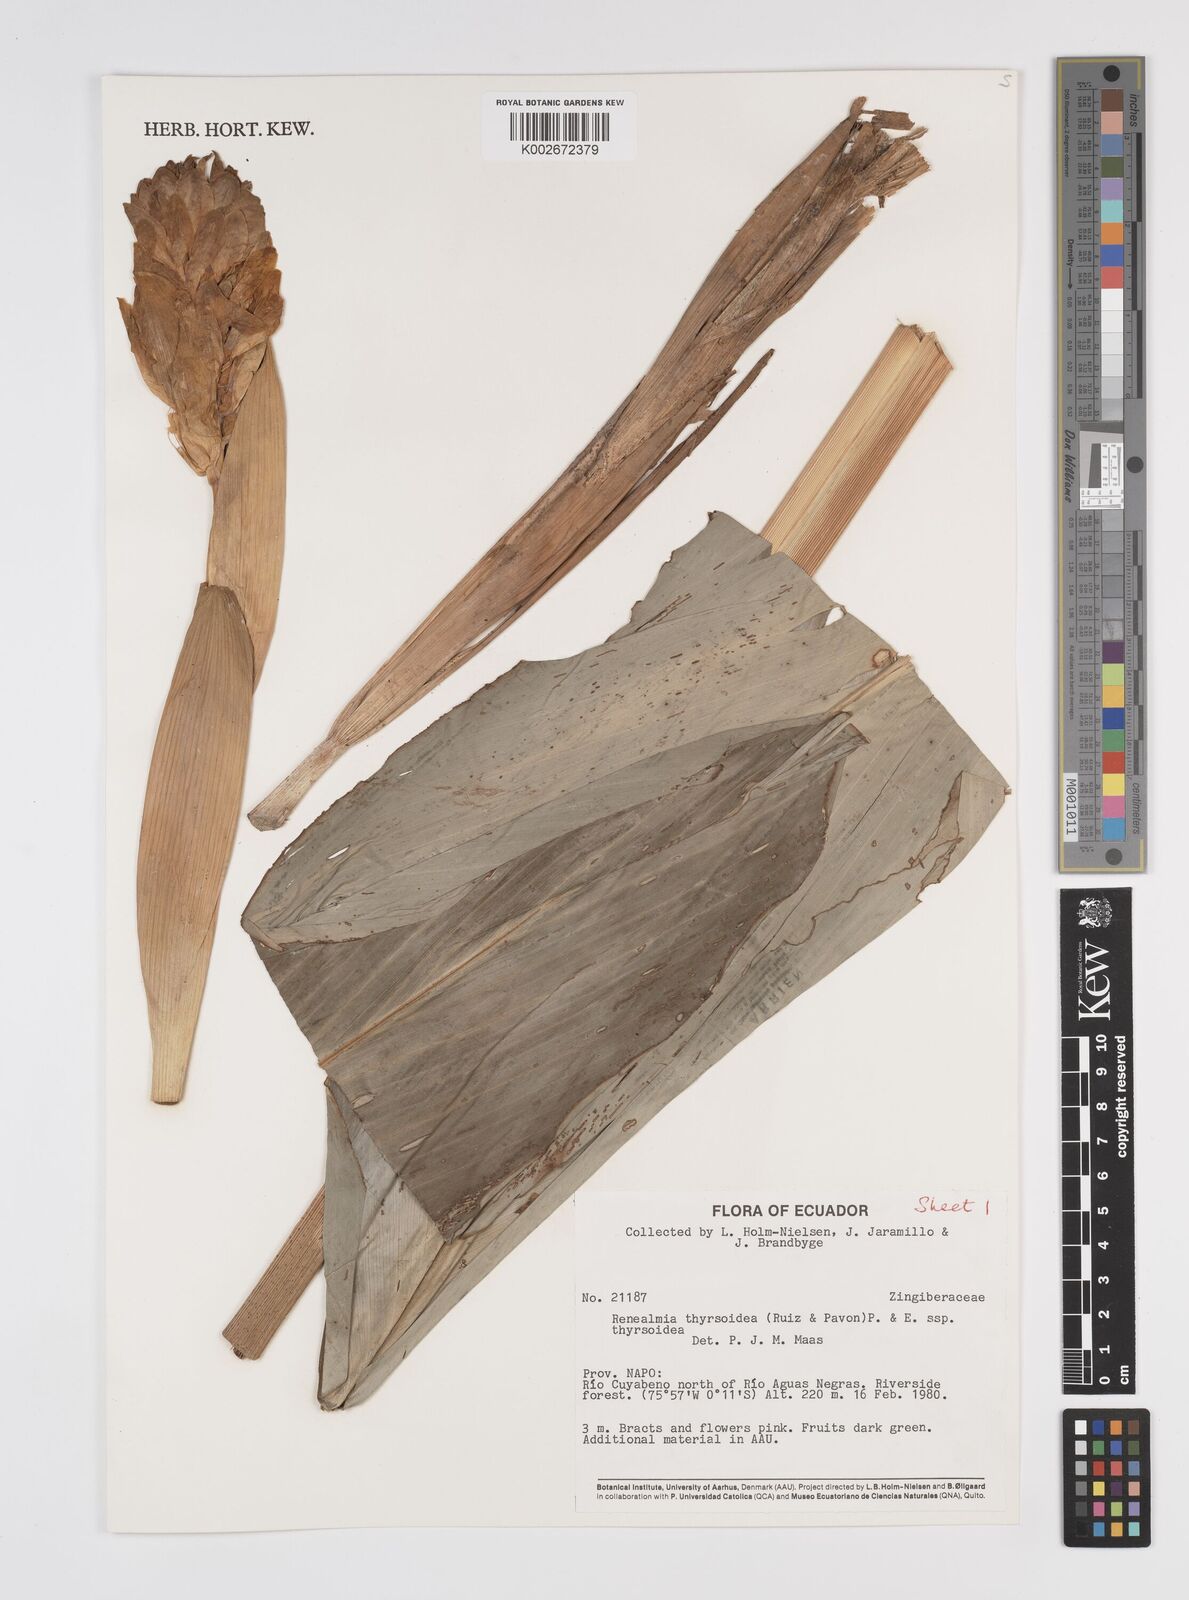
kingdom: Plantae
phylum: Tracheophyta
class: Liliopsida
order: Zingiberales
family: Zingiberaceae
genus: Renealmia
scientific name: Renealmia thyrsoidea
